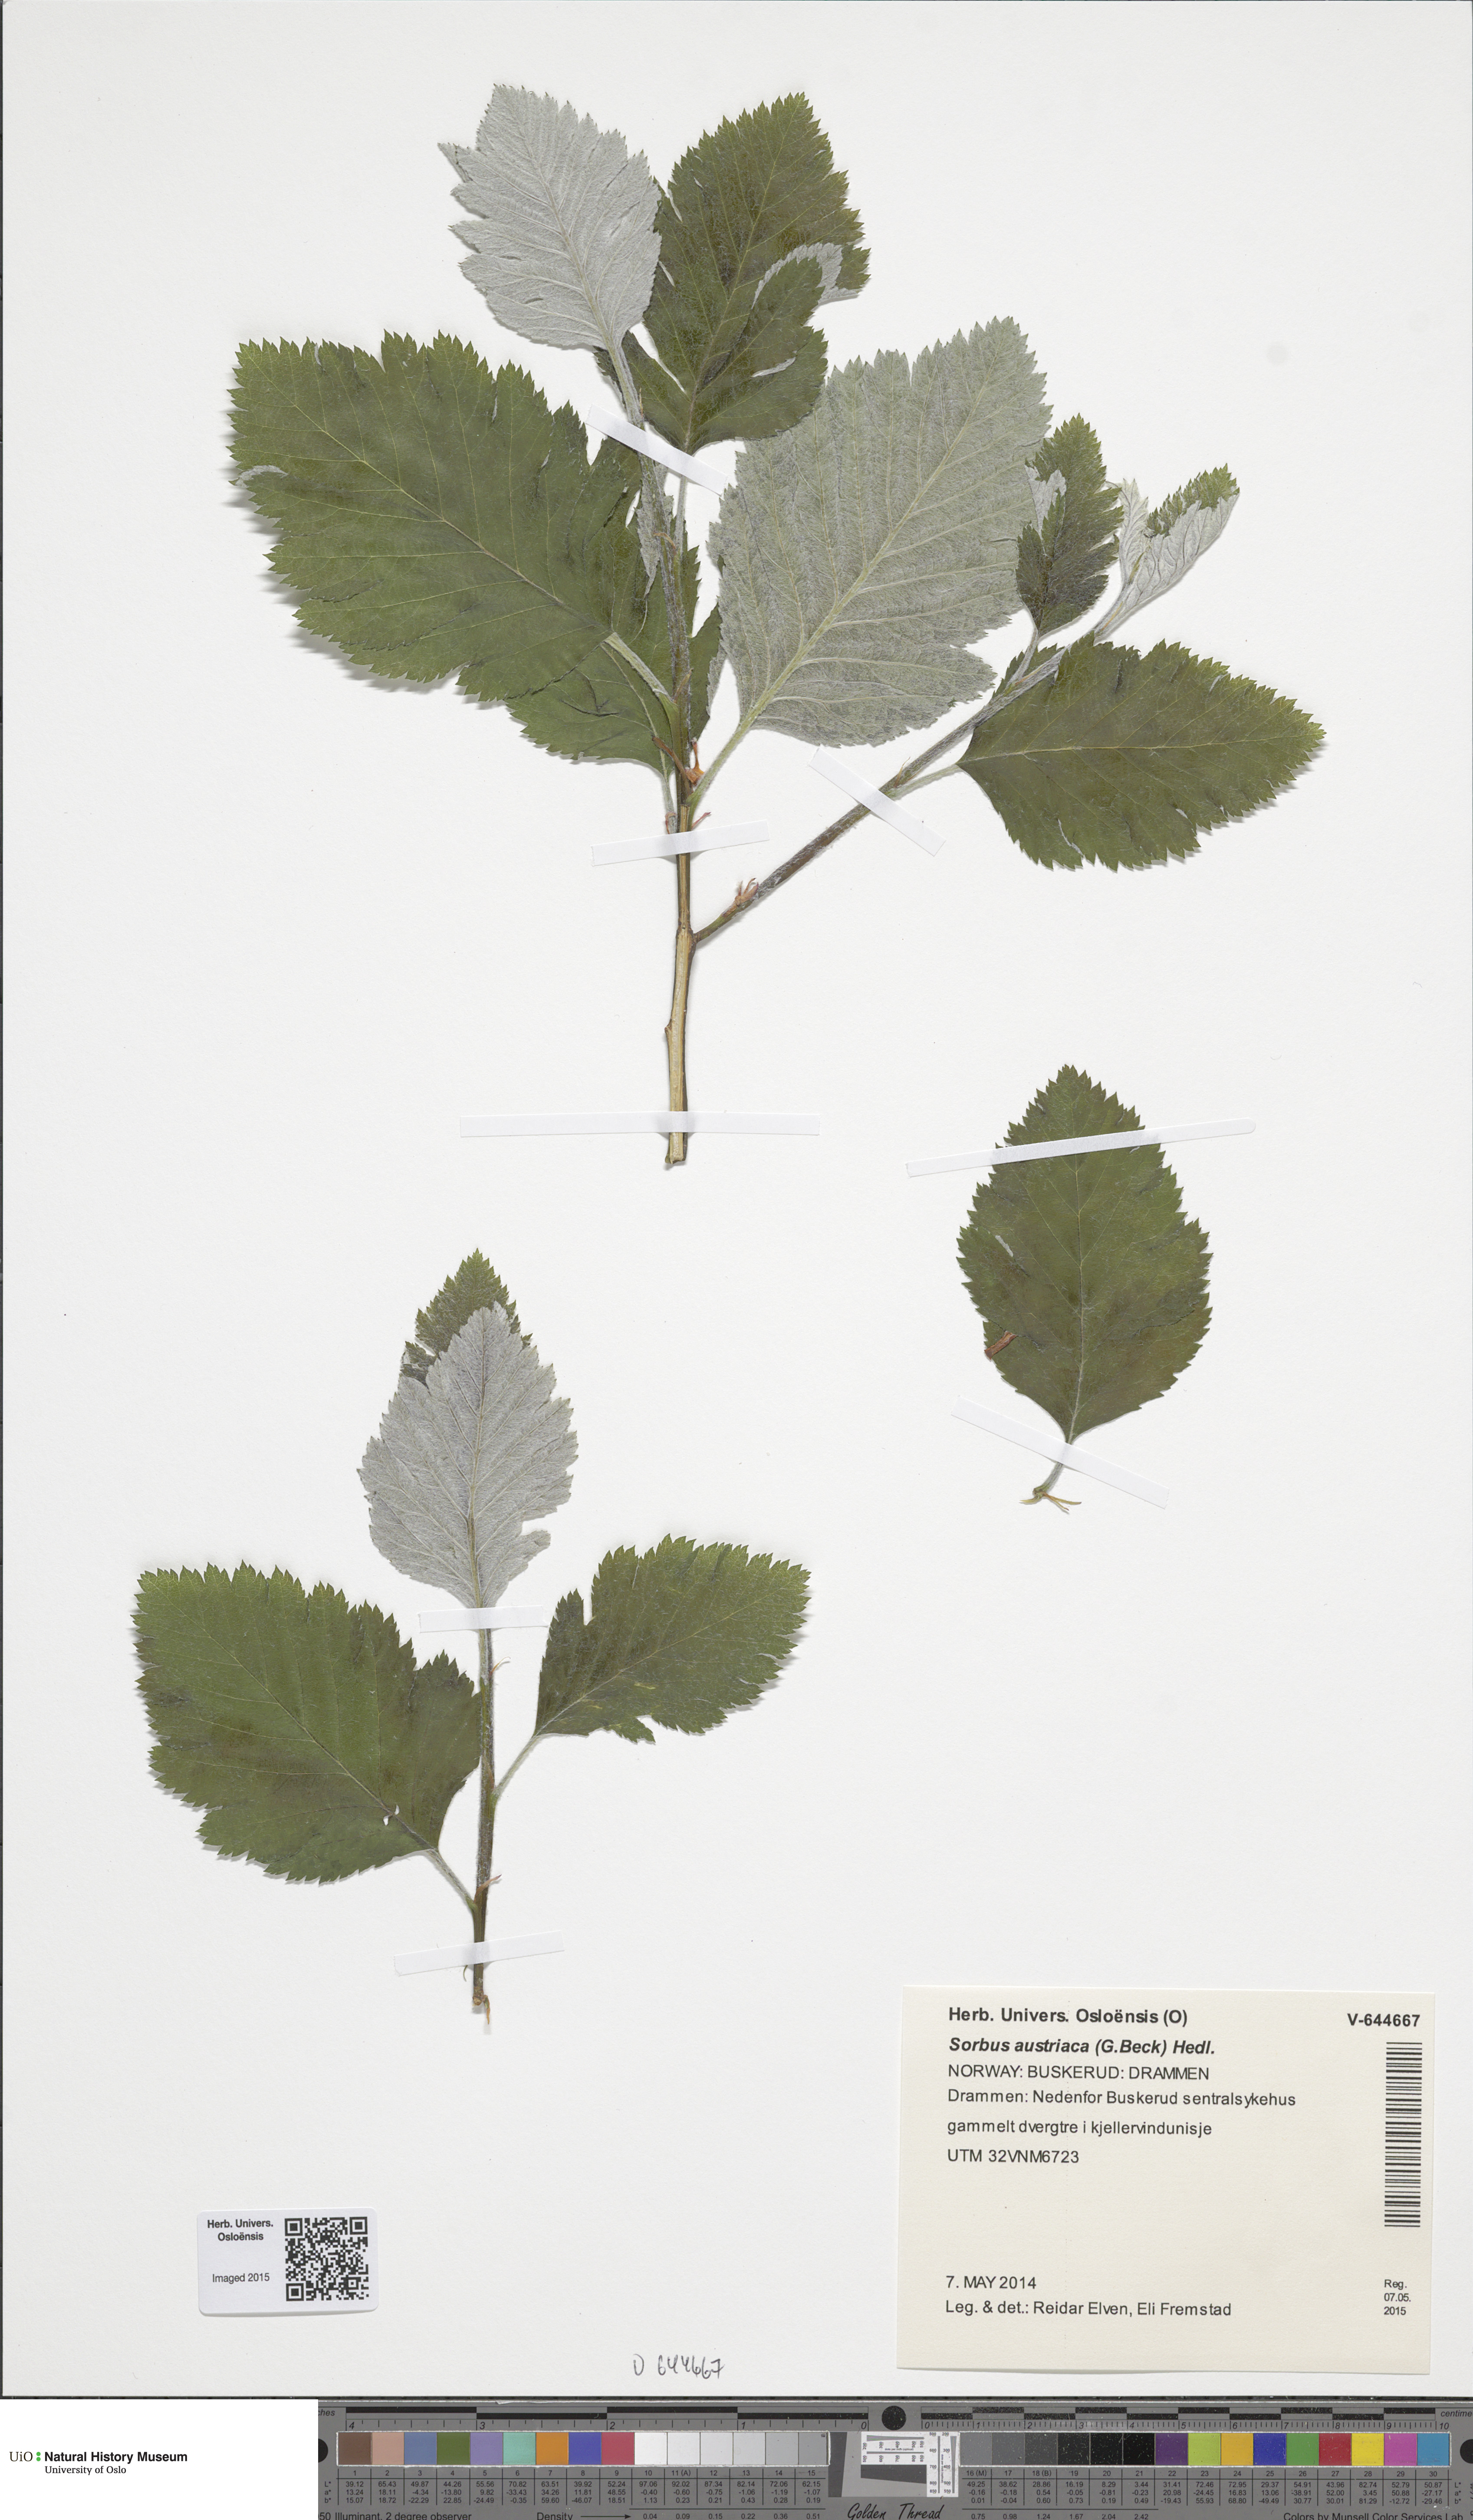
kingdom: Plantae
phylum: Tracheophyta
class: Magnoliopsida
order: Rosales
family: Rosaceae
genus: Hedlundia
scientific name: Hedlundia austriaca
